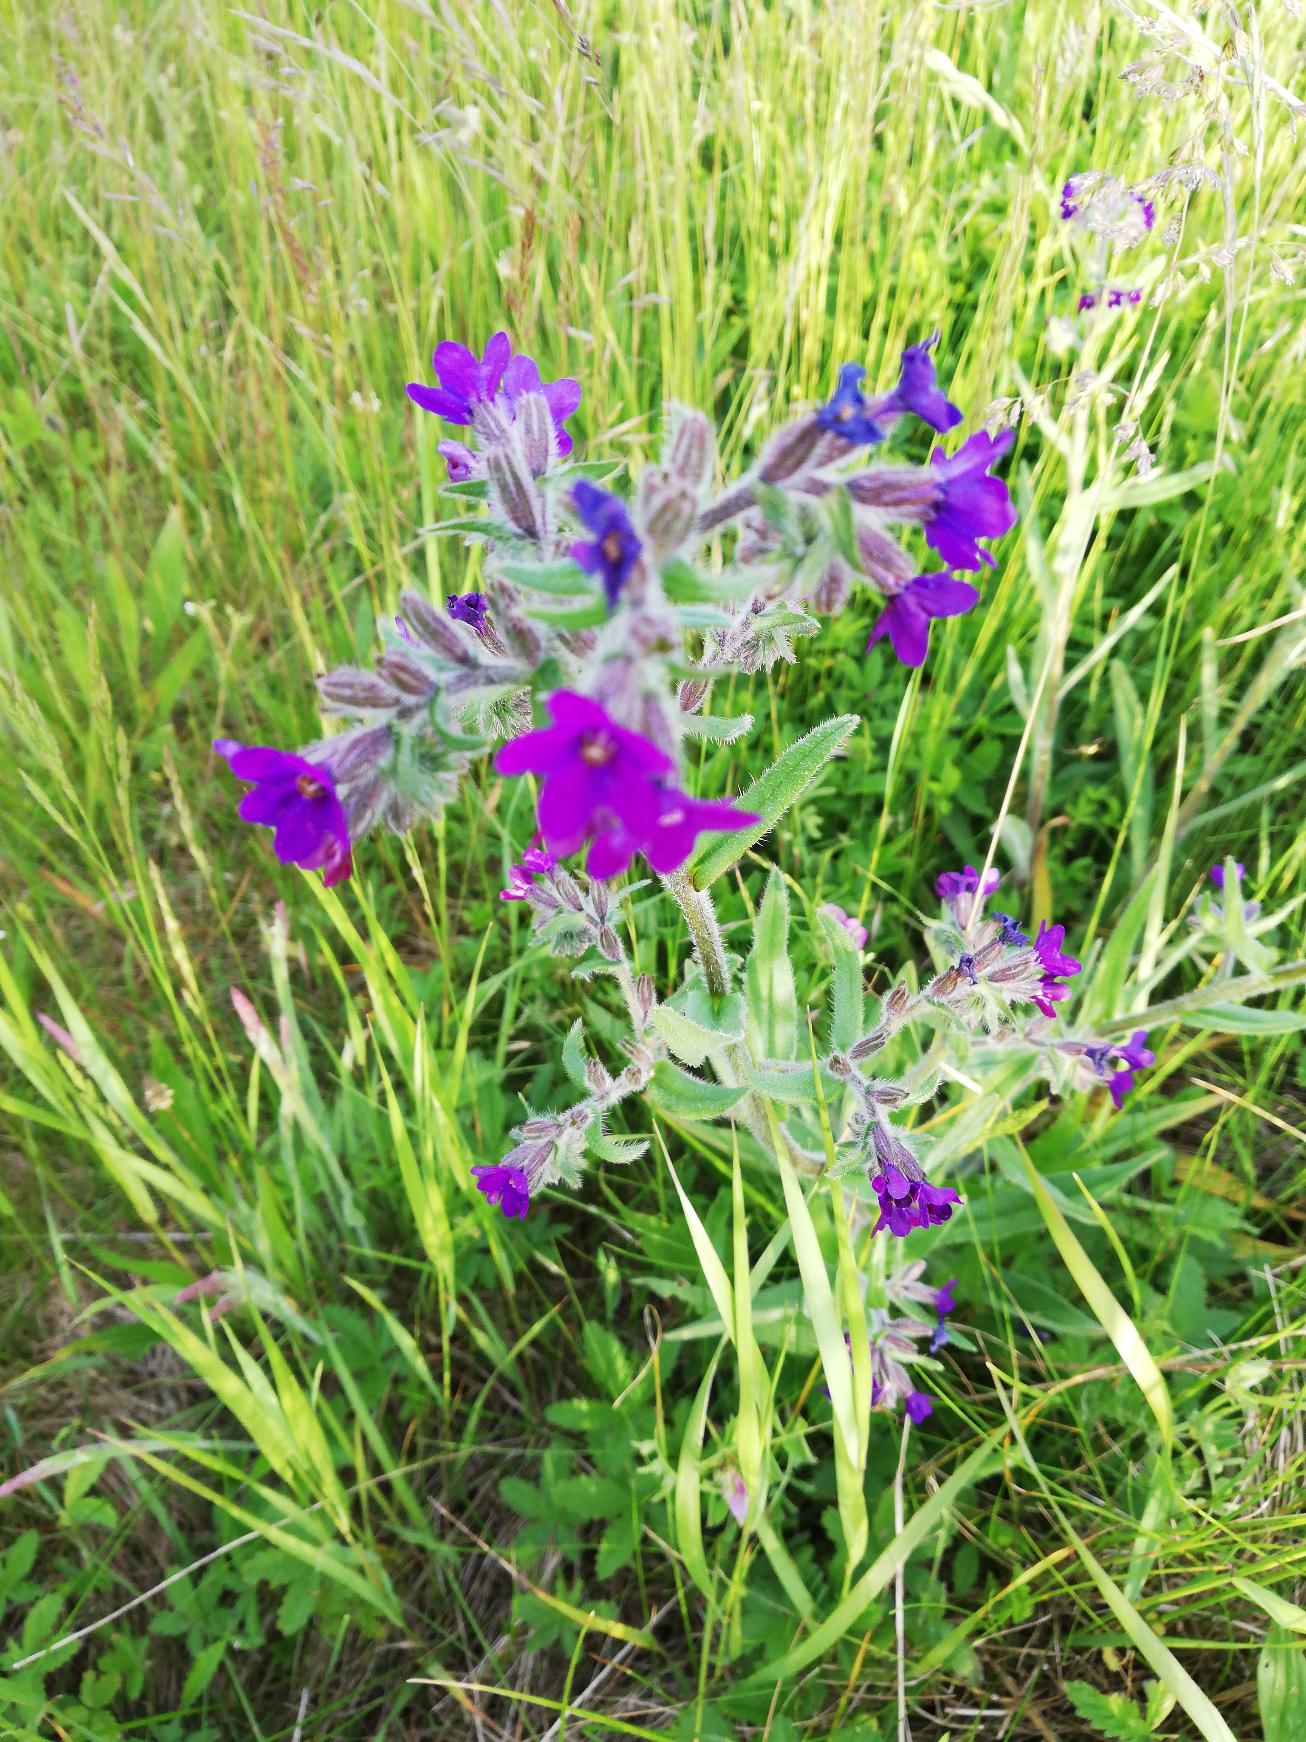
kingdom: Plantae
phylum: Tracheophyta
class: Magnoliopsida
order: Boraginales
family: Boraginaceae
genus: Anchusa
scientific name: Anchusa officinalis
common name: Læge-oksetunge
